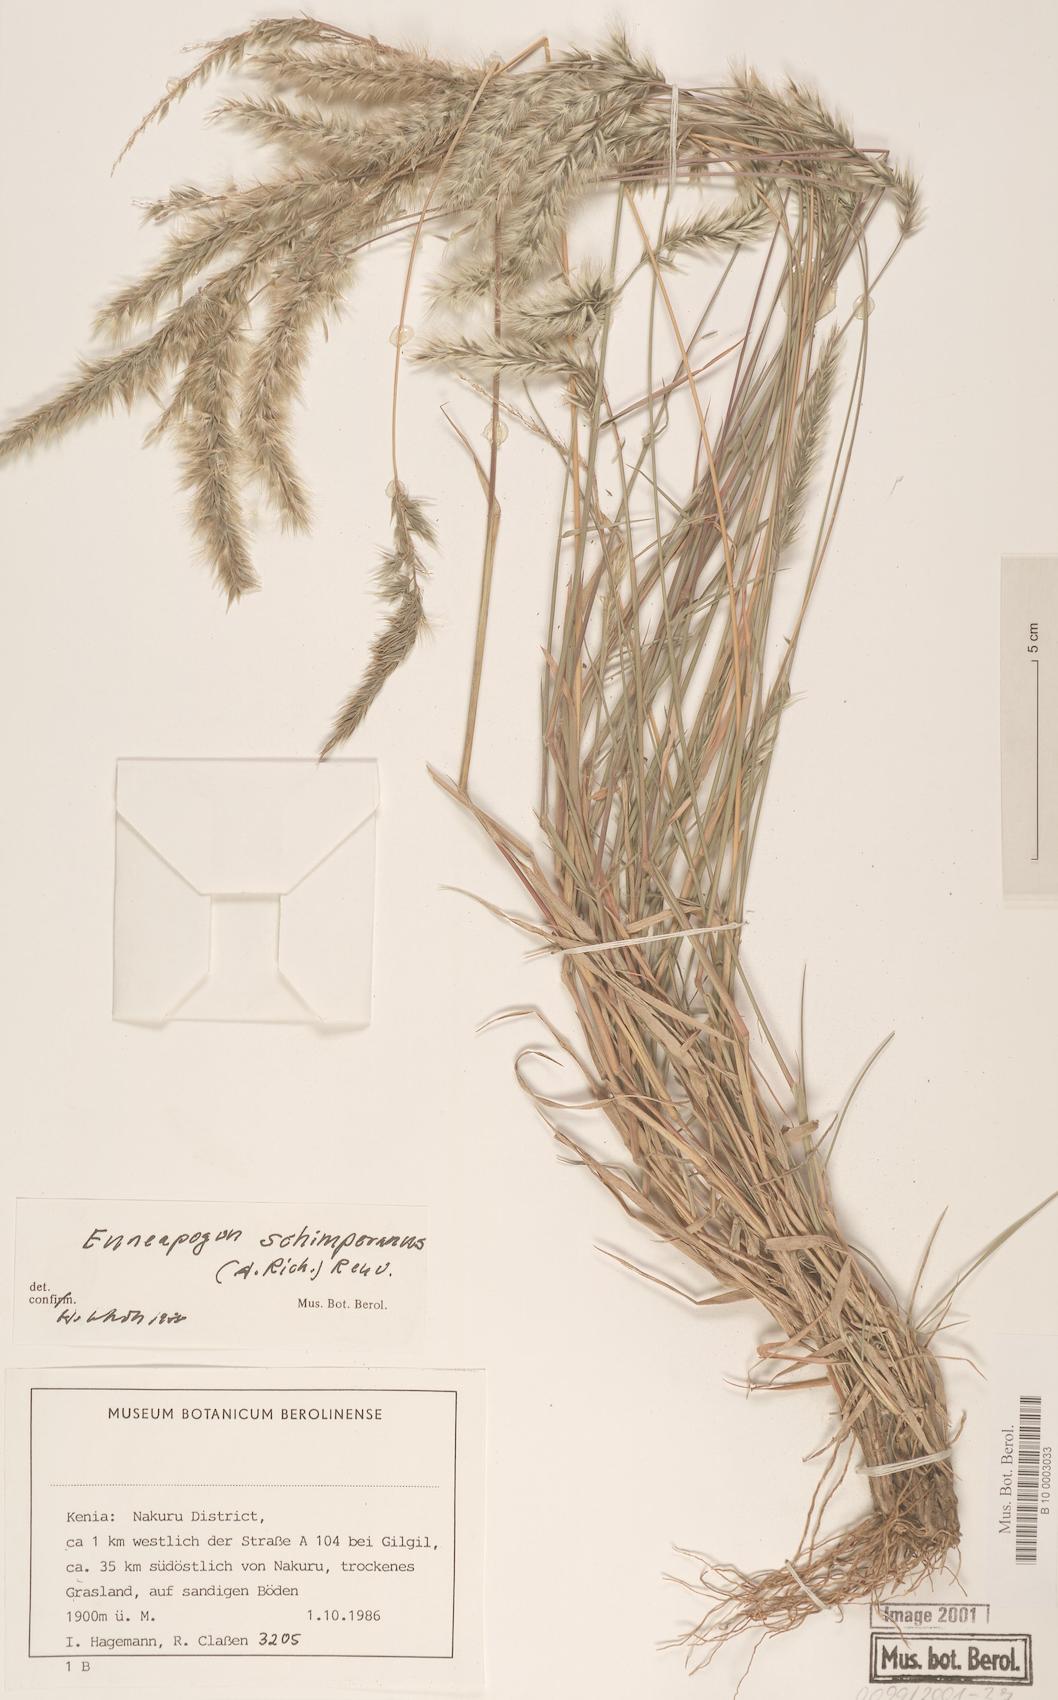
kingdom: Plantae
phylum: Tracheophyta
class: Liliopsida
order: Poales
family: Poaceae
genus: Enneapogon
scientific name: Enneapogon persicus
